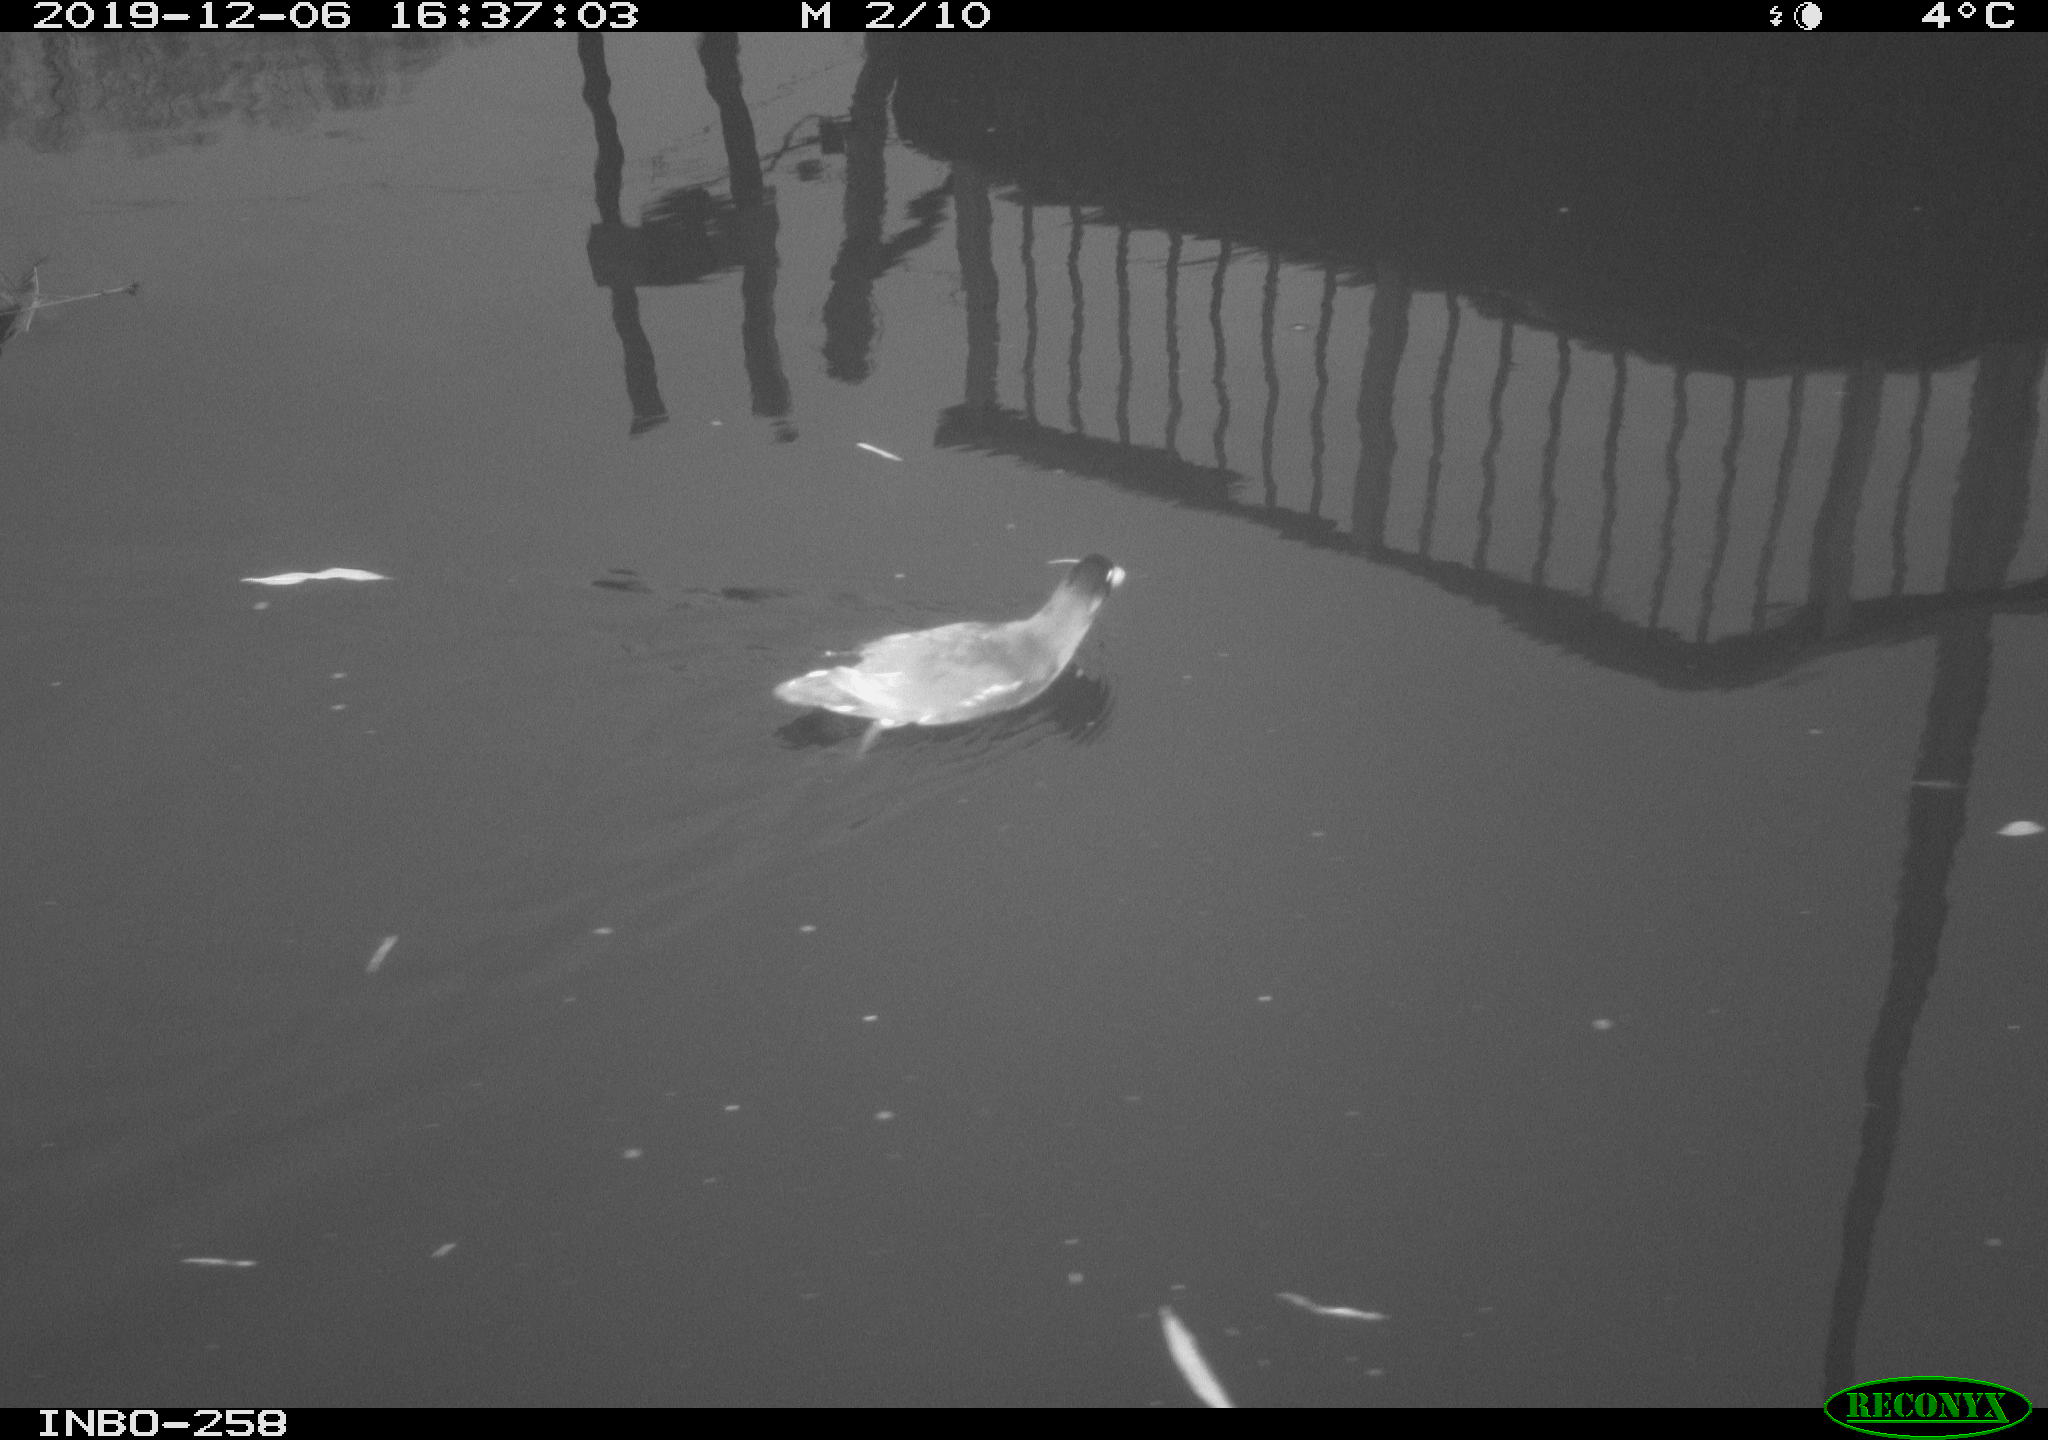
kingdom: Animalia
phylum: Chordata
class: Aves
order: Gruiformes
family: Rallidae
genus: Gallinula
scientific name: Gallinula chloropus
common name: Common moorhen
